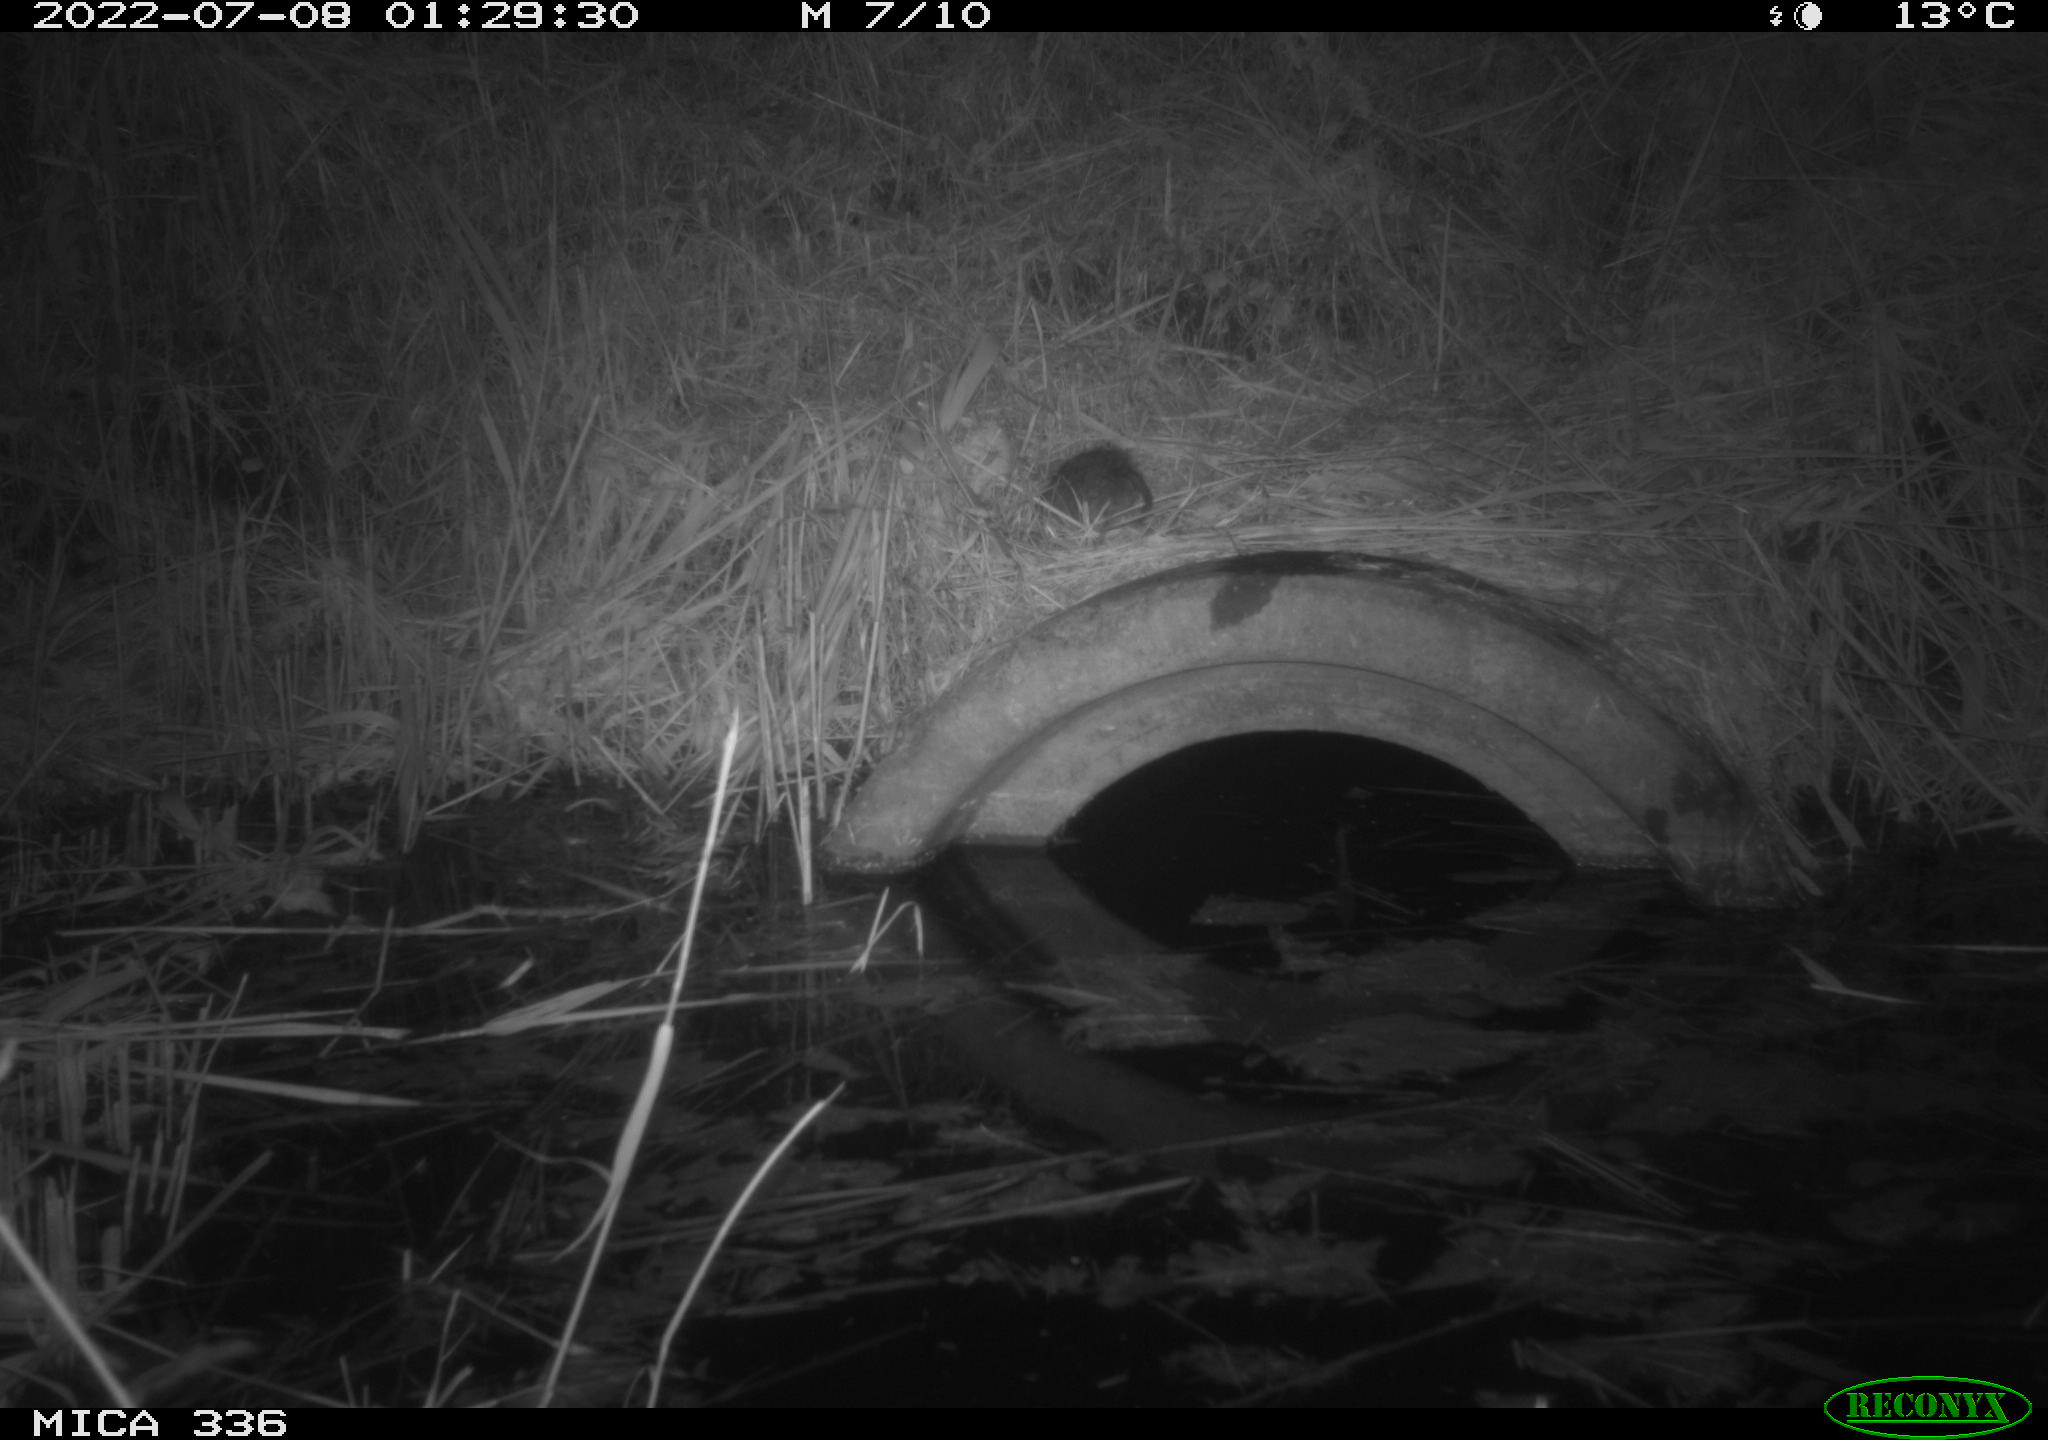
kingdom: Animalia
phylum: Chordata
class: Mammalia
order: Rodentia
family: Muridae
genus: Rattus
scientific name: Rattus norvegicus
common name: Brown rat
